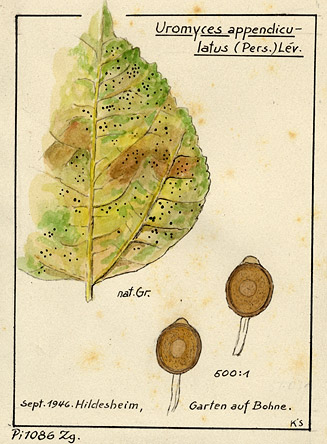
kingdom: Plantae
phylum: Tracheophyta
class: Magnoliopsida
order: Fabales
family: Fabaceae
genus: Phaseolus
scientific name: Phaseolus
